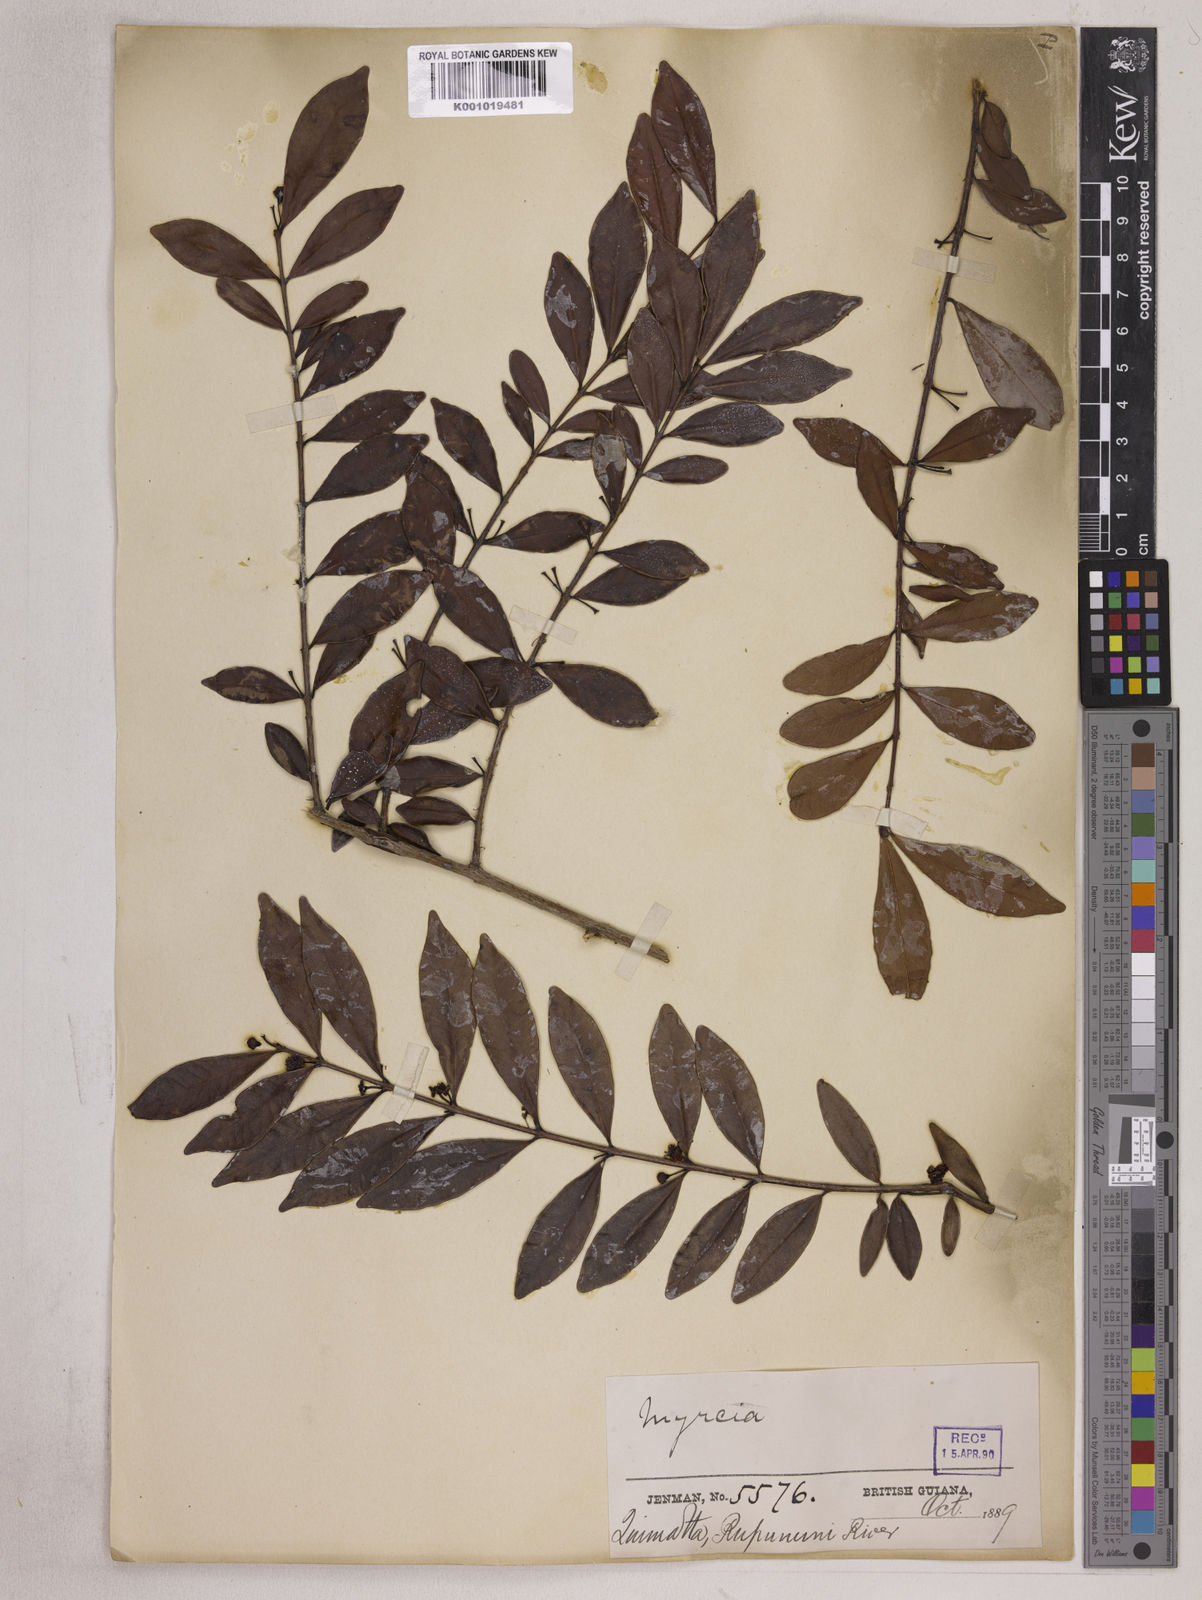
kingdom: Plantae
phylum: Tracheophyta
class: Magnoliopsida
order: Myrtales
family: Myrtaceae
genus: Eugenia
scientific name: Eugenia punicifolia
